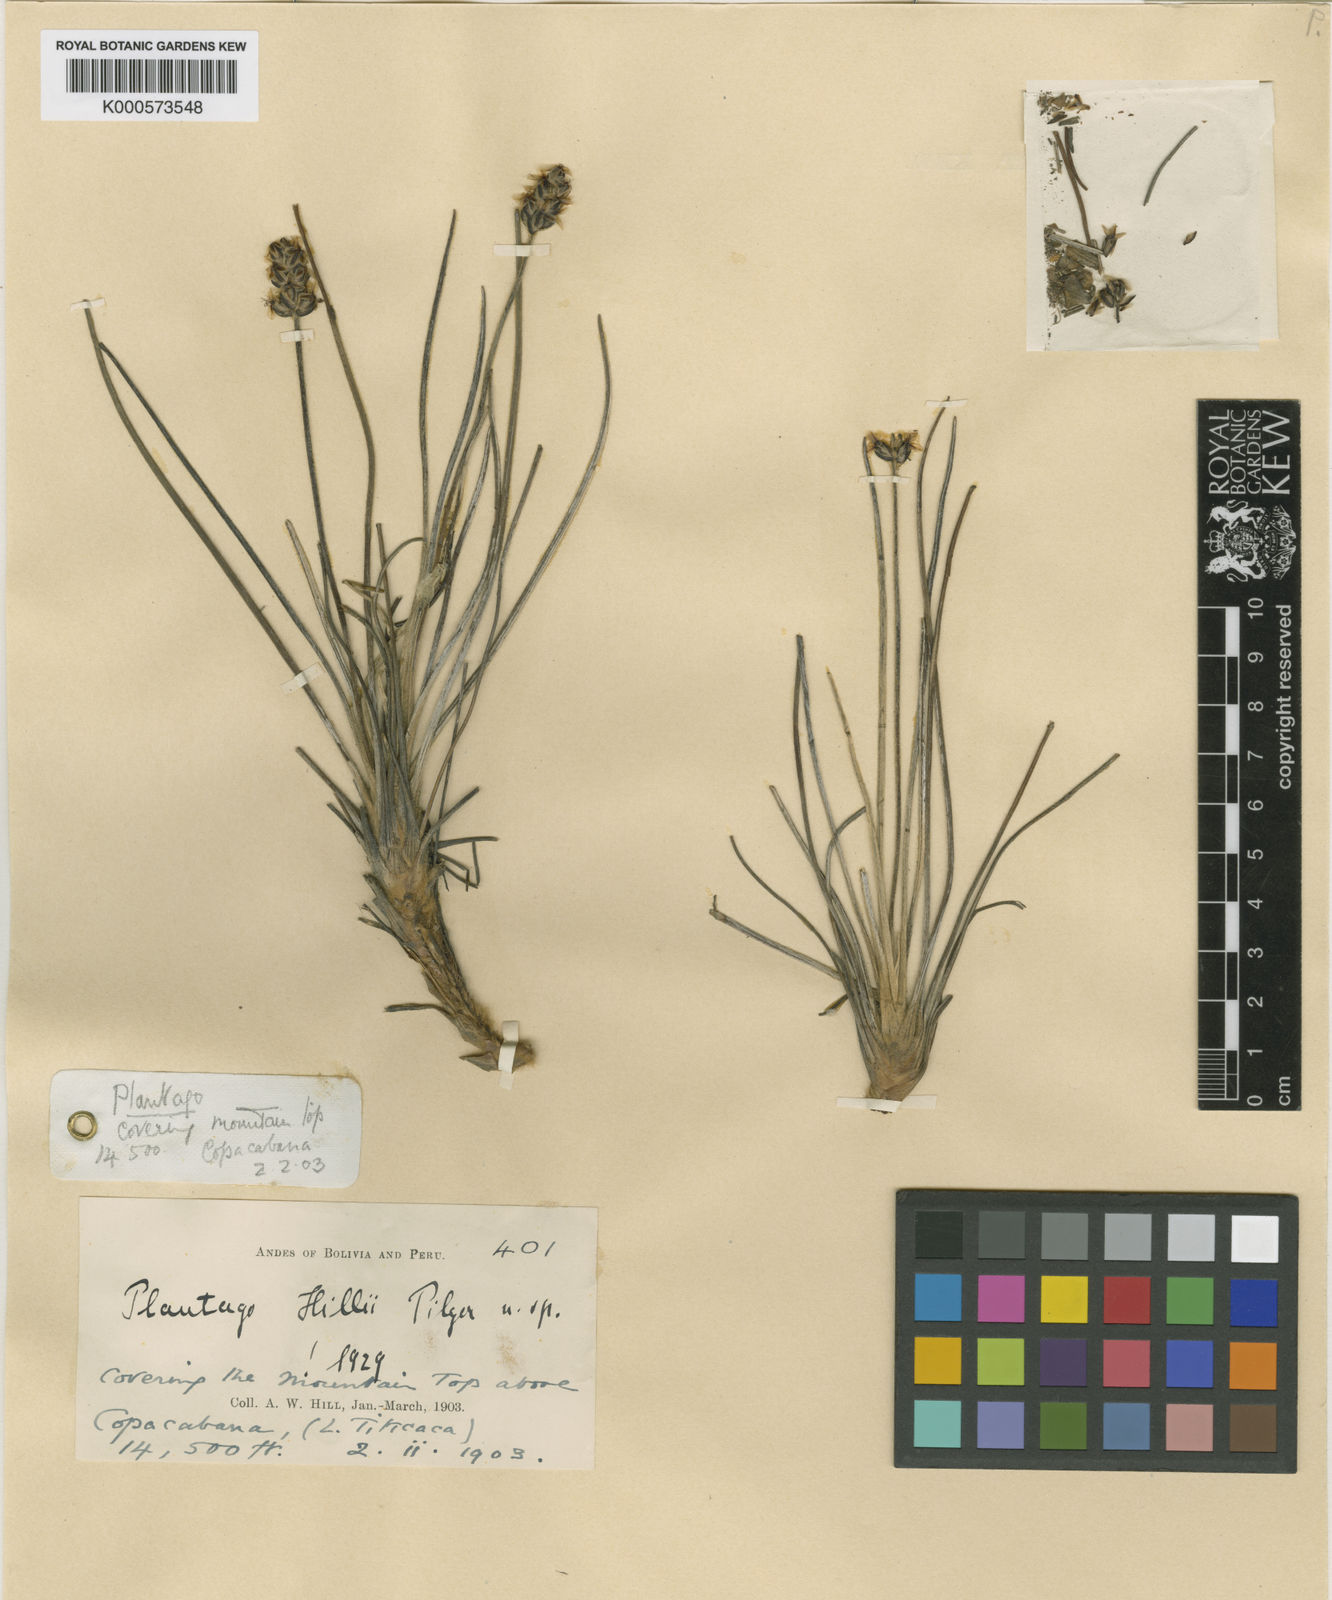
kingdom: Plantae
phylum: Tracheophyta
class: Magnoliopsida
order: Lamiales
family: Plantaginaceae
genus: Plantago
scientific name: Plantago sericea
